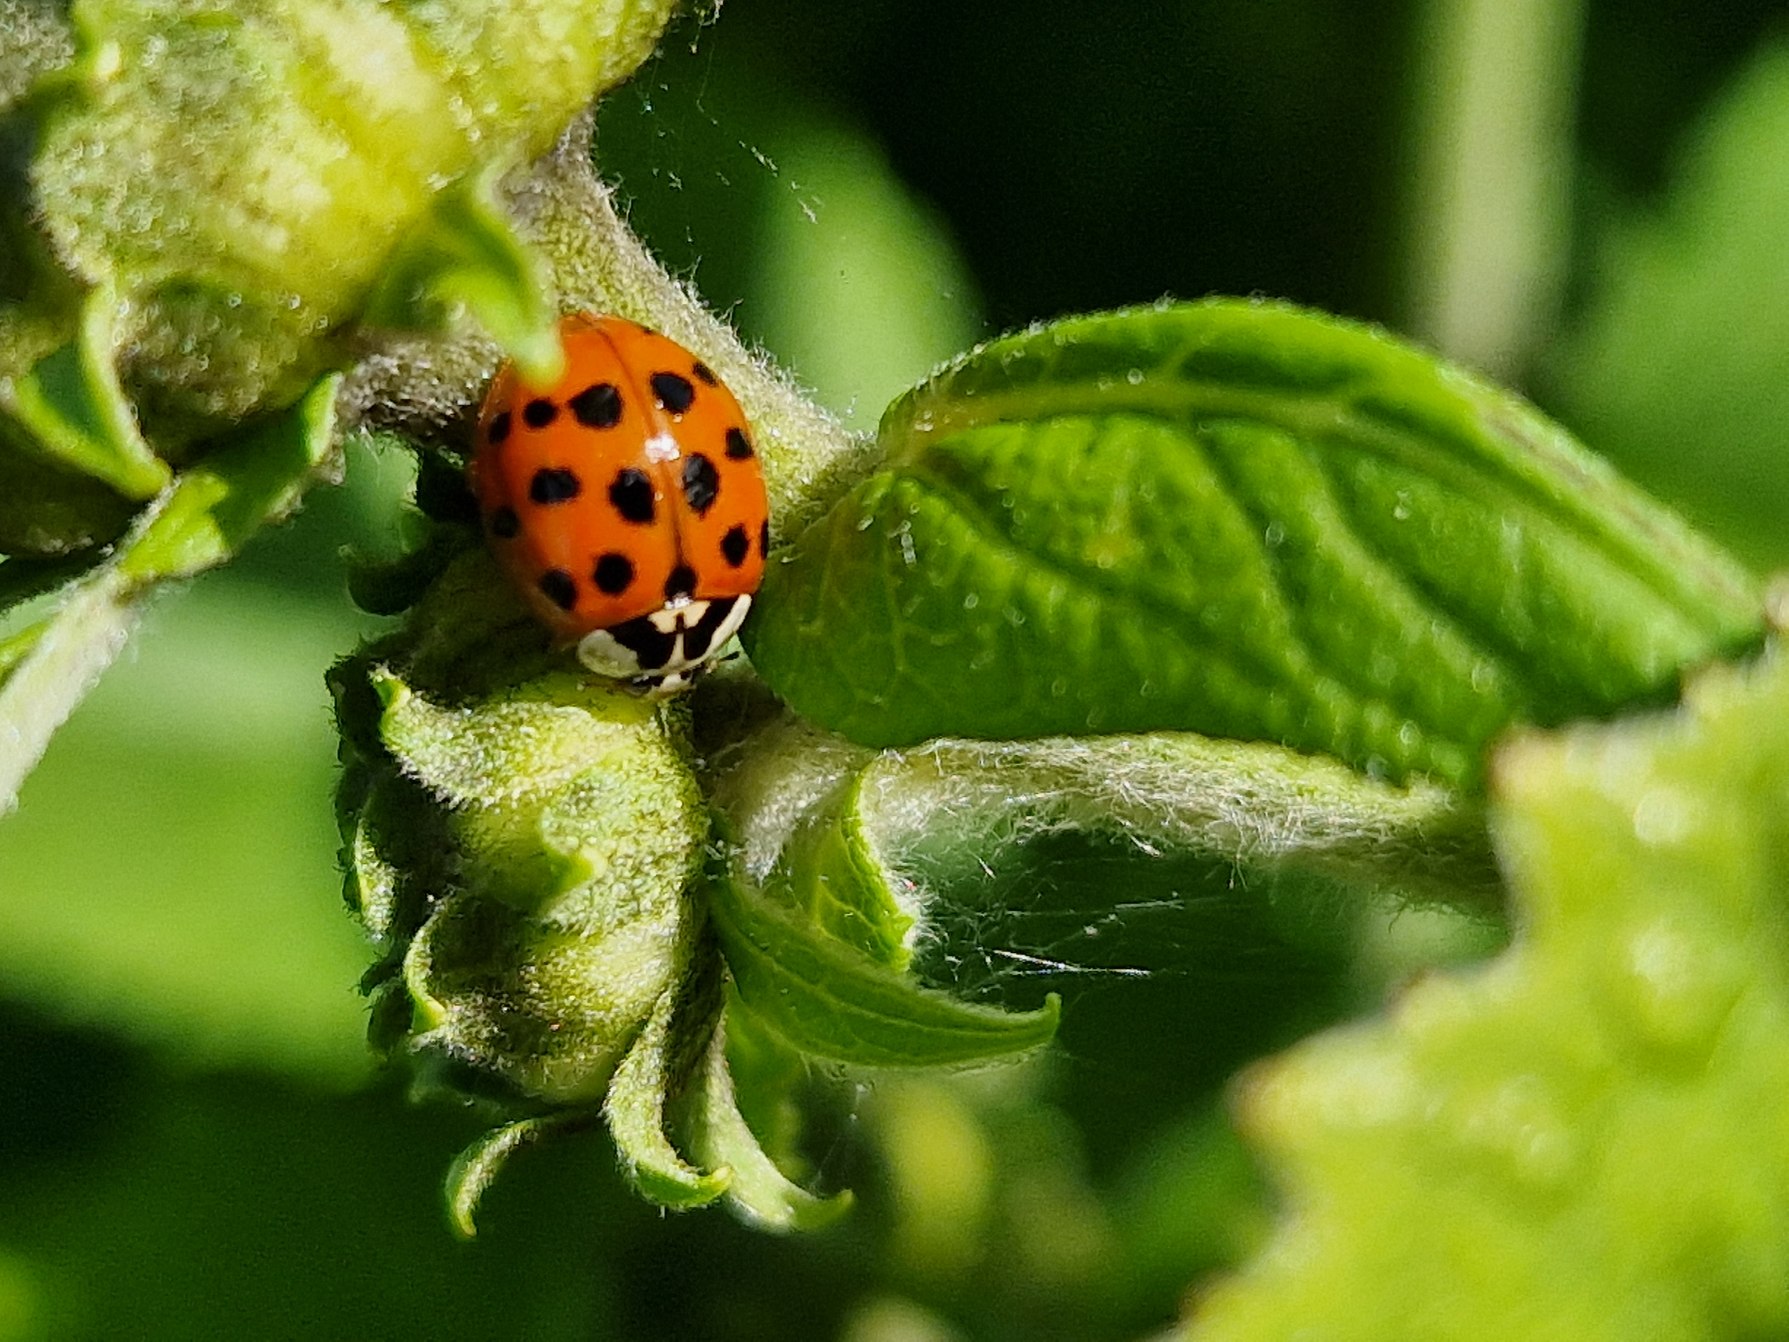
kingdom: Animalia
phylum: Arthropoda
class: Insecta
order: Coleoptera
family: Coccinellidae
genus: Harmonia
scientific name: Harmonia axyridis
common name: Harlekinmariehøne
